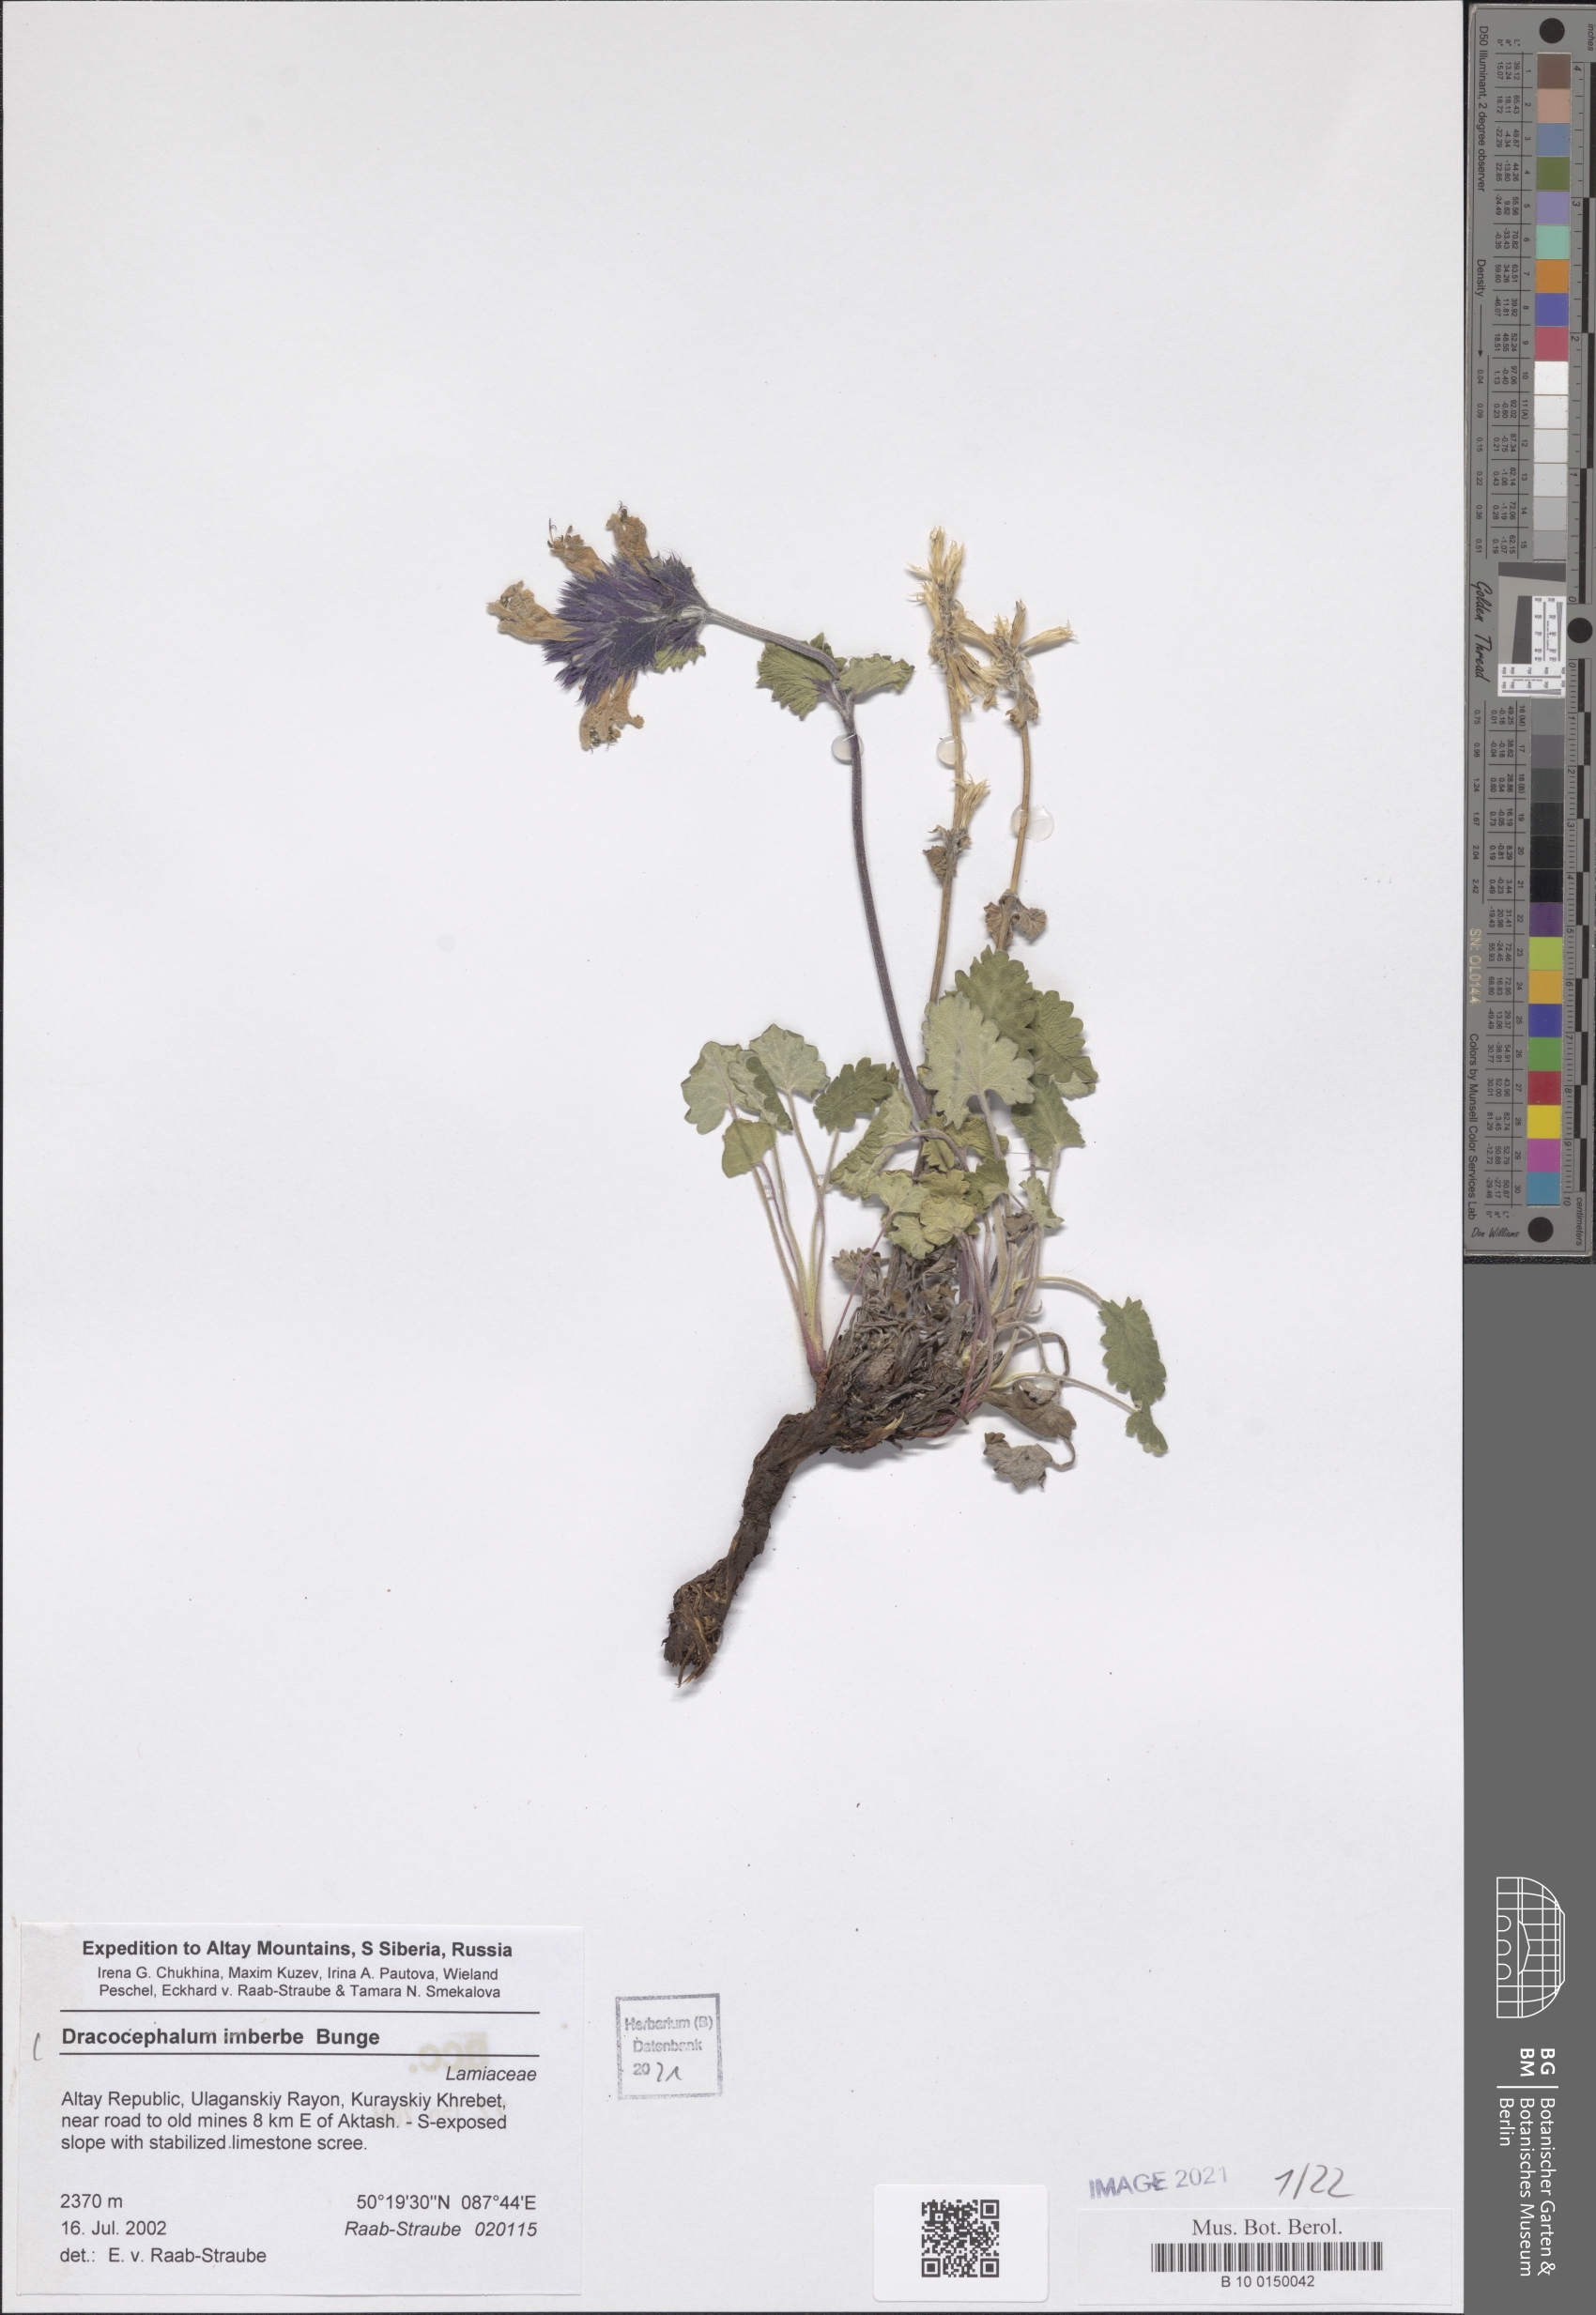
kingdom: Plantae
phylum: Tracheophyta
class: Magnoliopsida
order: Lamiales
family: Lamiaceae
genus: Dracocephalum
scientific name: Dracocephalum imberbe
